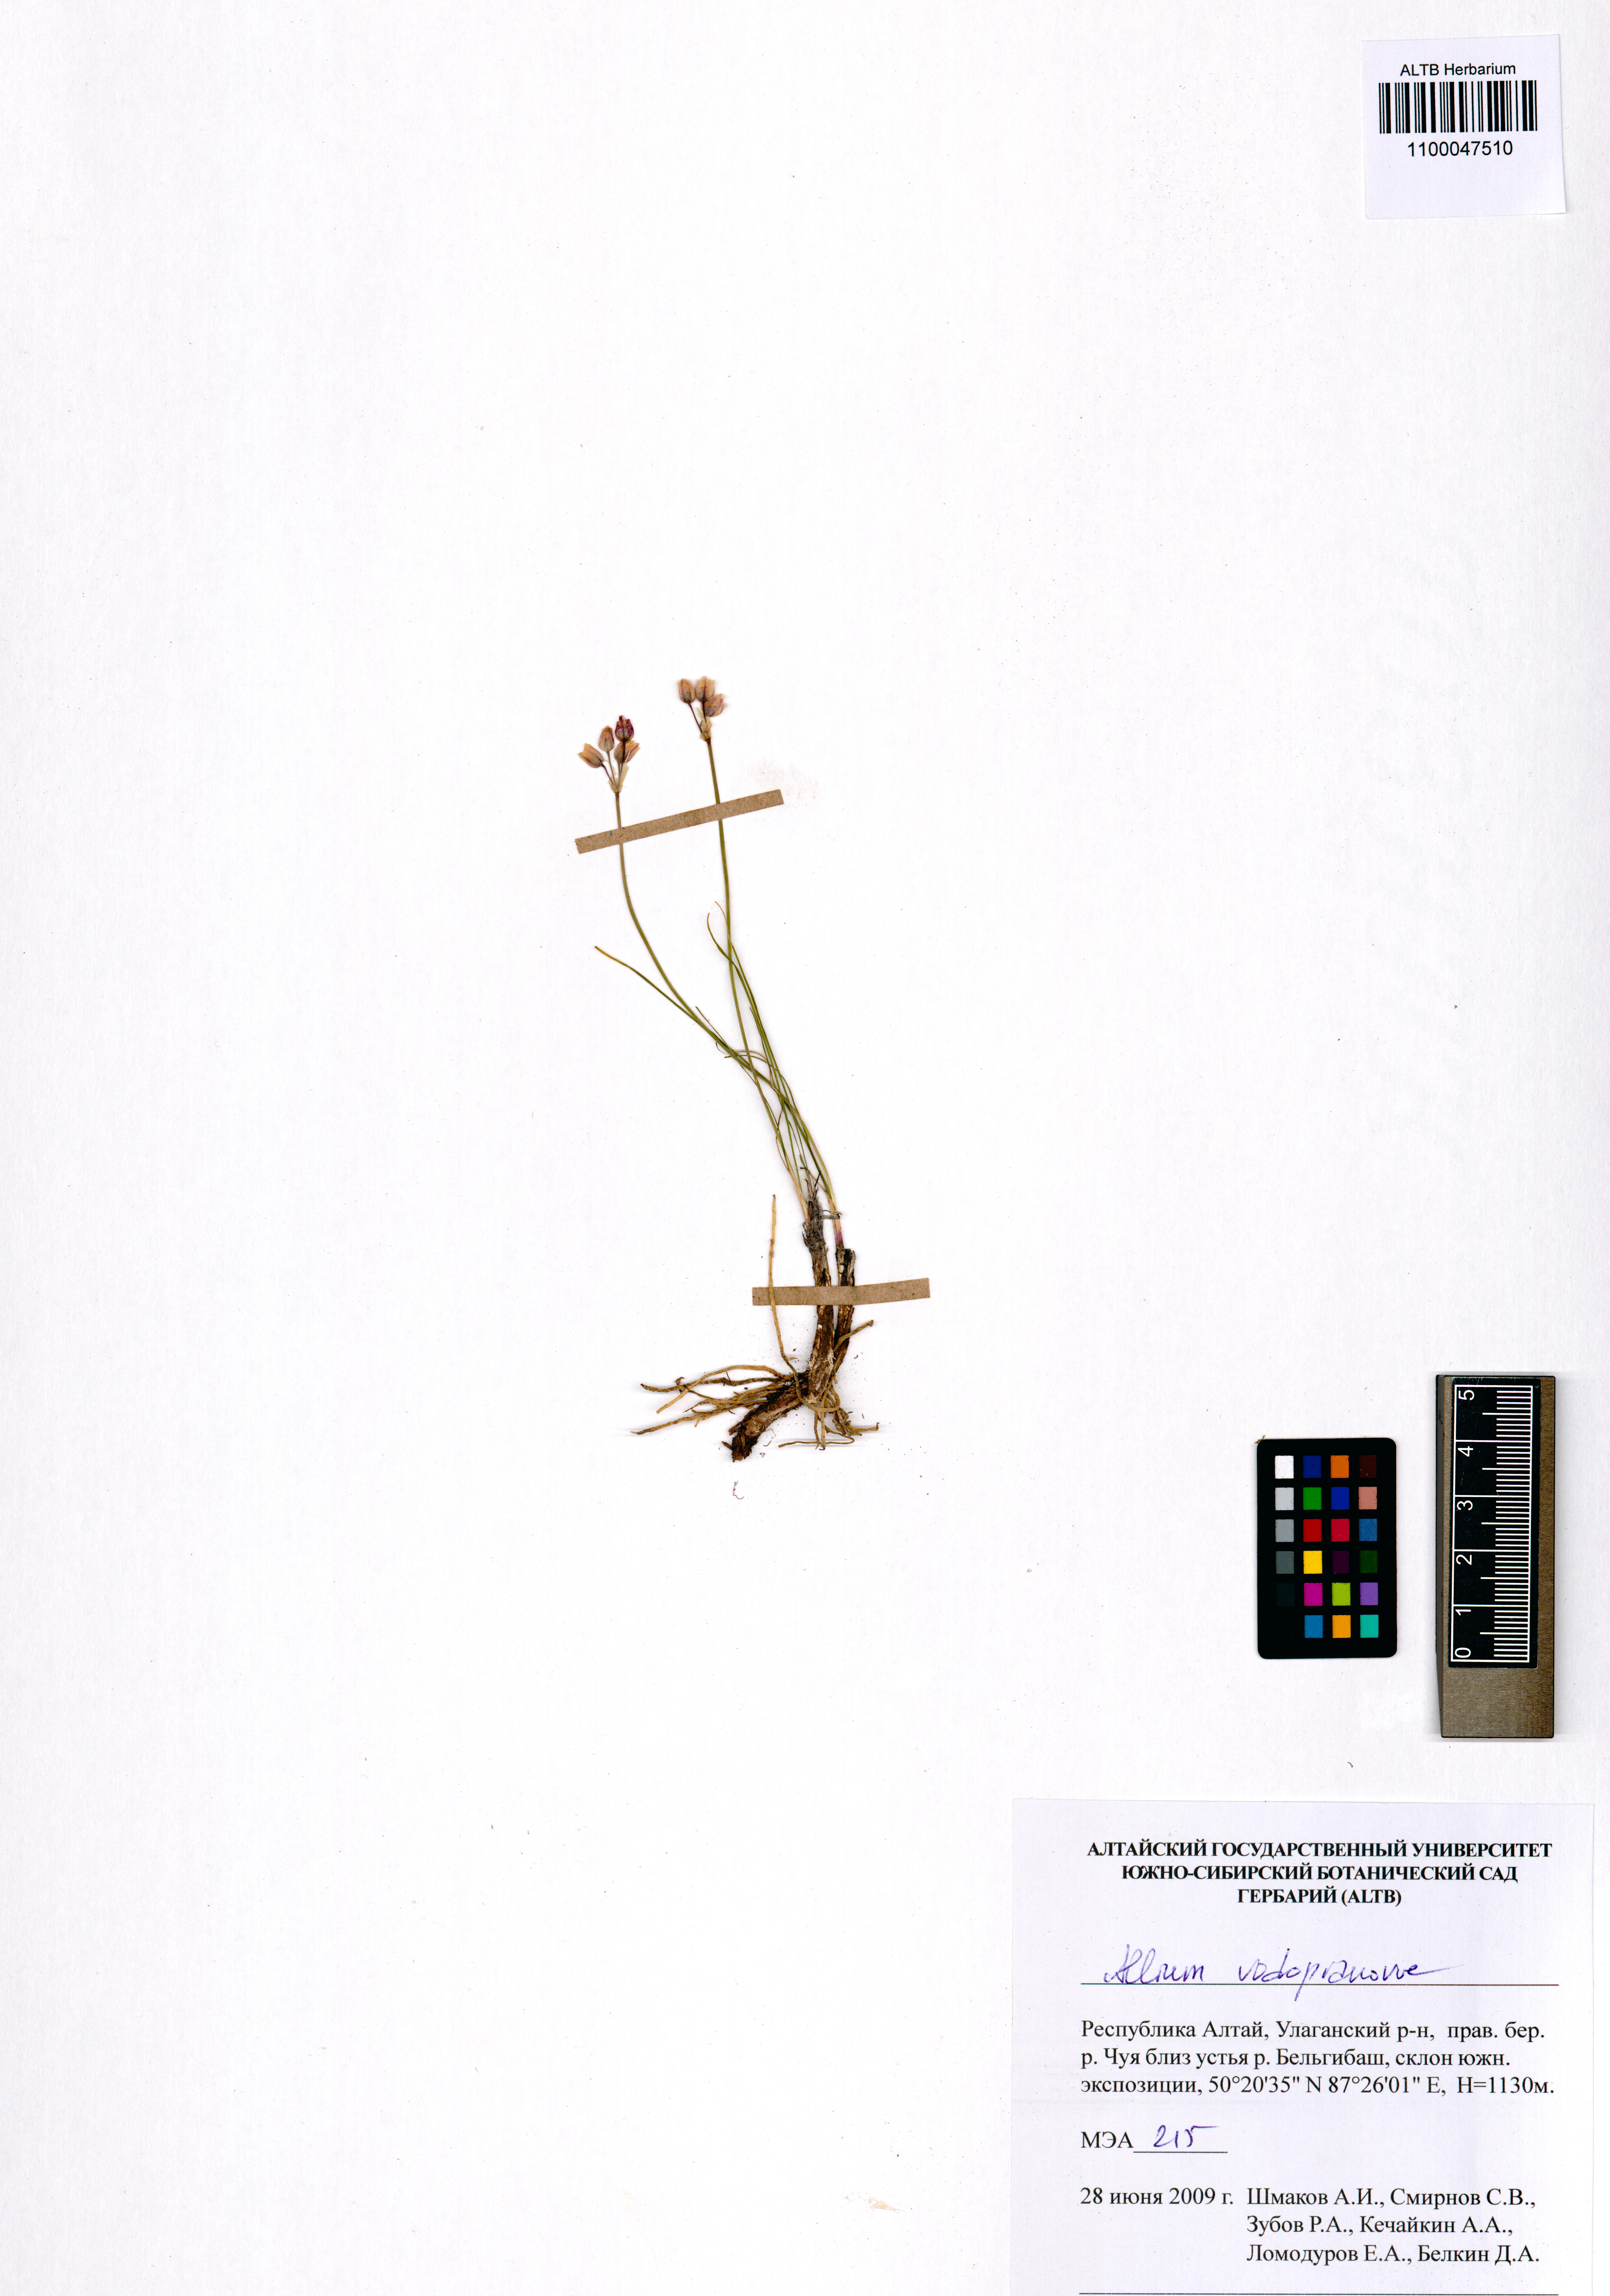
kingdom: Plantae
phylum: Tracheophyta
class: Liliopsida
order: Asparagales
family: Amaryllidaceae
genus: Allium
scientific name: Allium vodopjanovae
